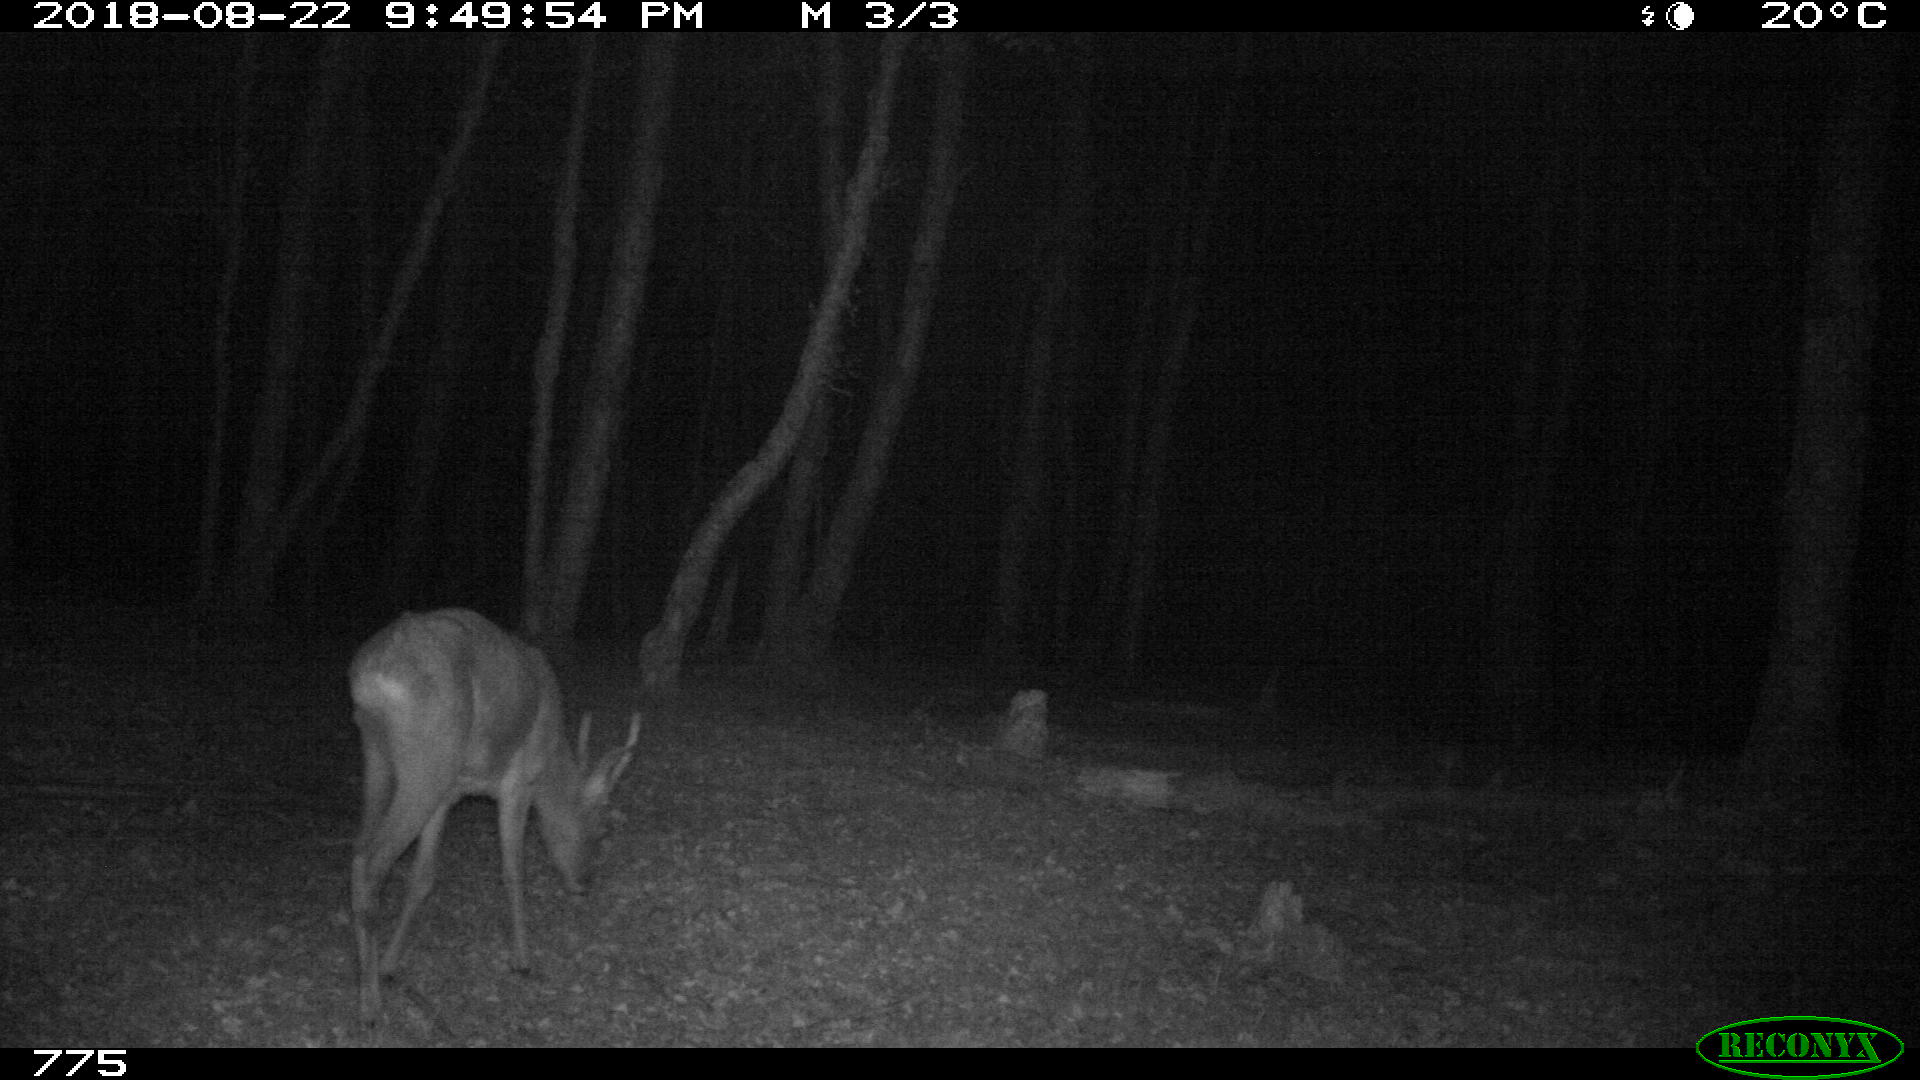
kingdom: Animalia
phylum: Chordata
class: Mammalia
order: Artiodactyla
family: Cervidae
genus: Capreolus
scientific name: Capreolus capreolus
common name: Western roe deer
